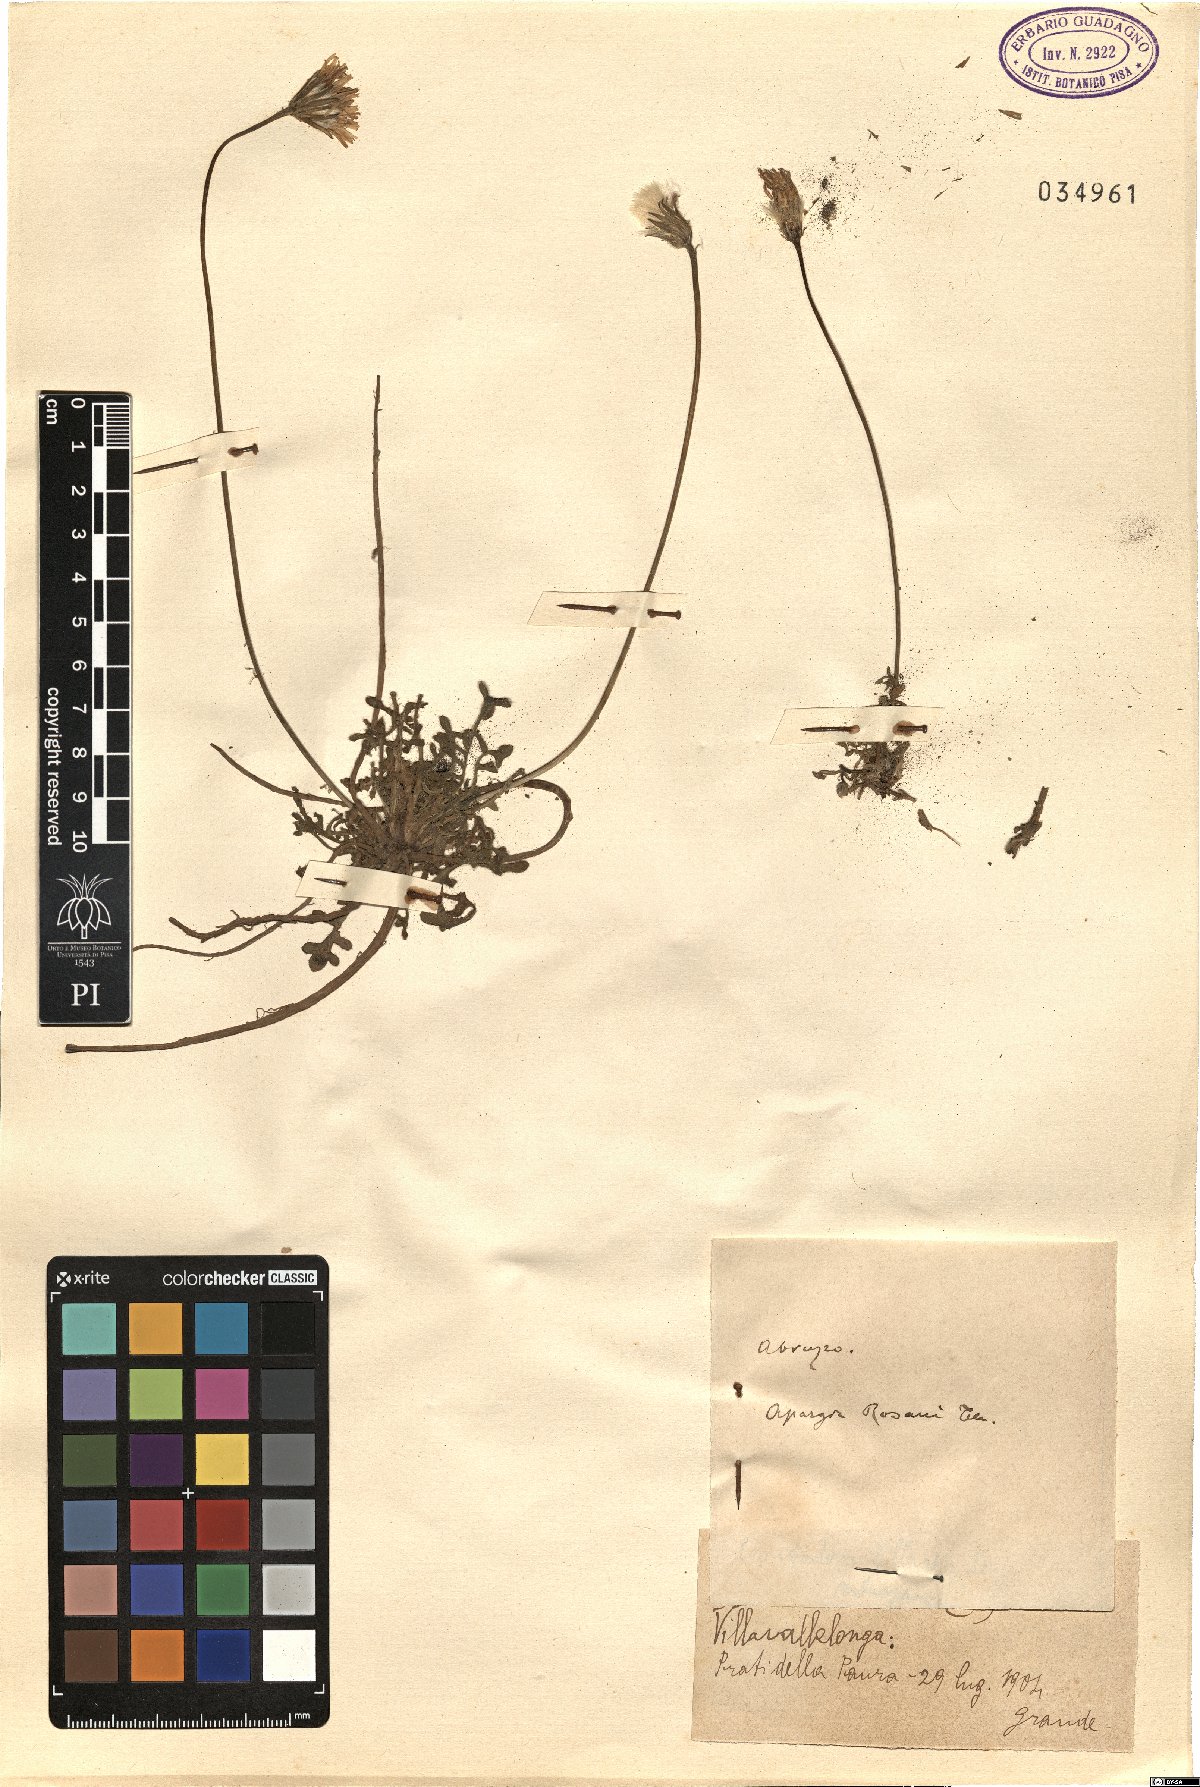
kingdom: Plantae
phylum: Tracheophyta
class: Magnoliopsida
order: Asterales
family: Asteraceae
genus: Leontodon
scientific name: Leontodon rosanoi
